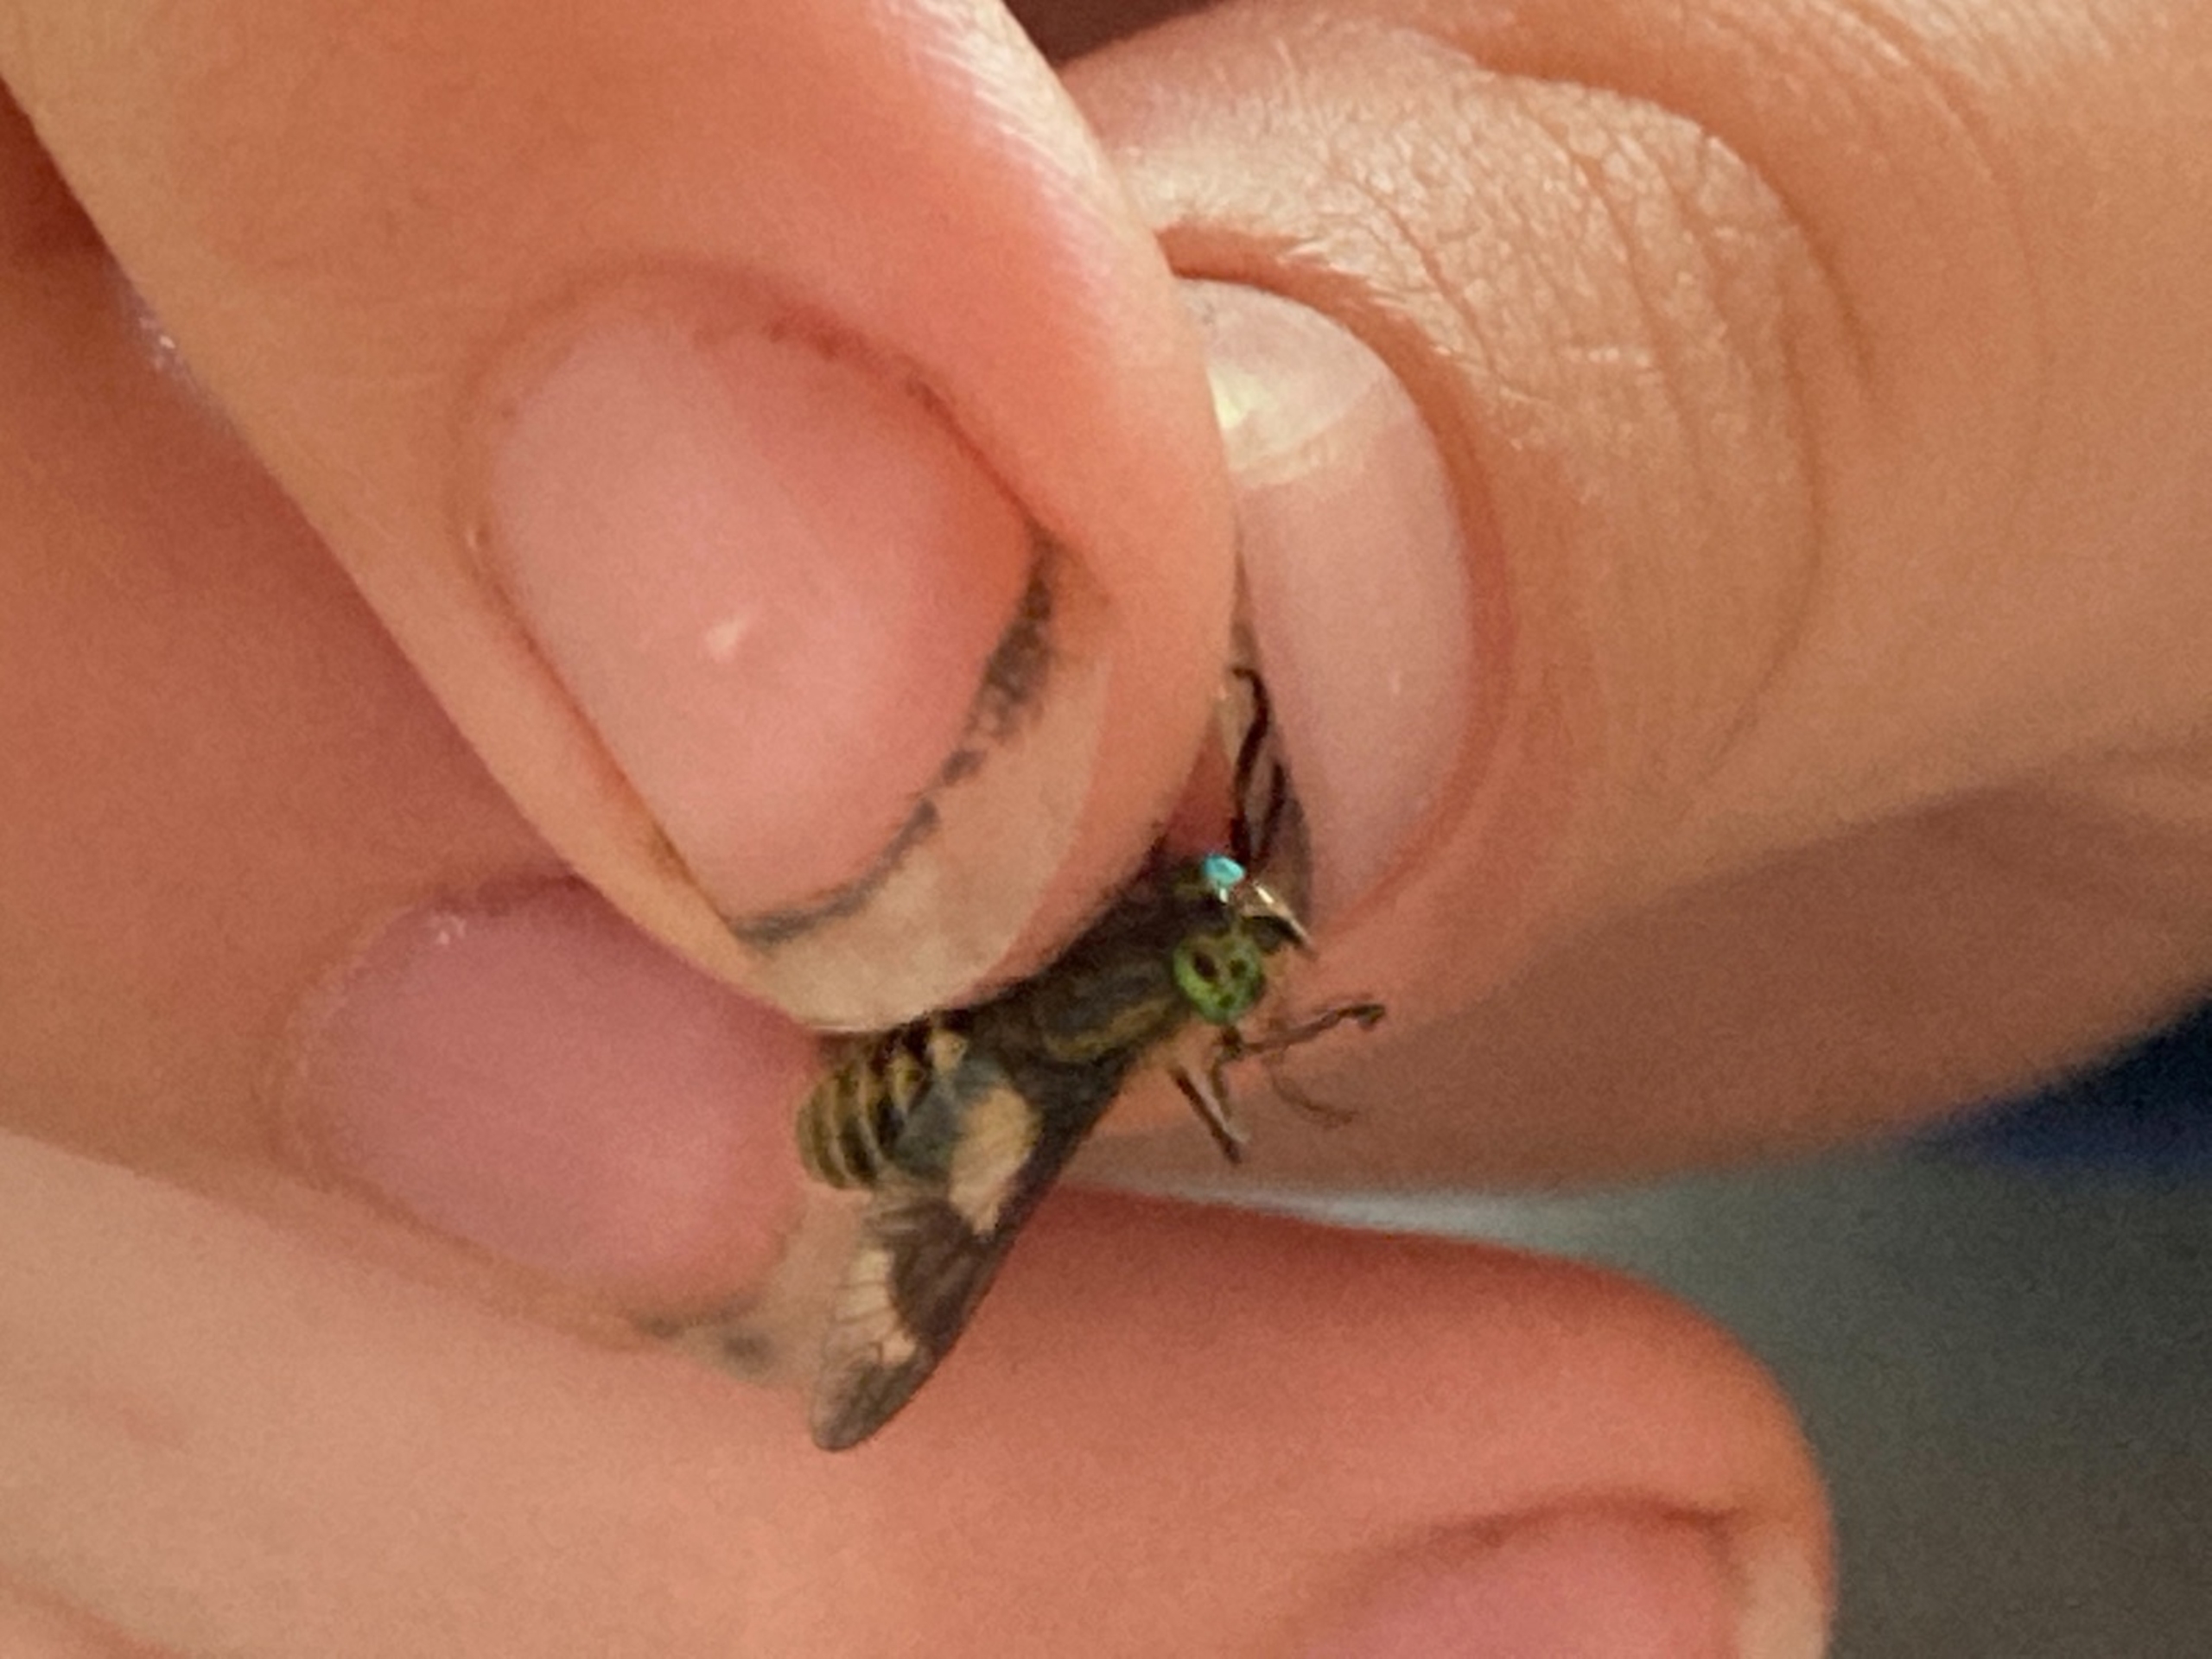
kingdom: Animalia
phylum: Arthropoda
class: Insecta
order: Diptera
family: Tabanidae
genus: Chrysops
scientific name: Chrysops relictus
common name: Guldklæg
